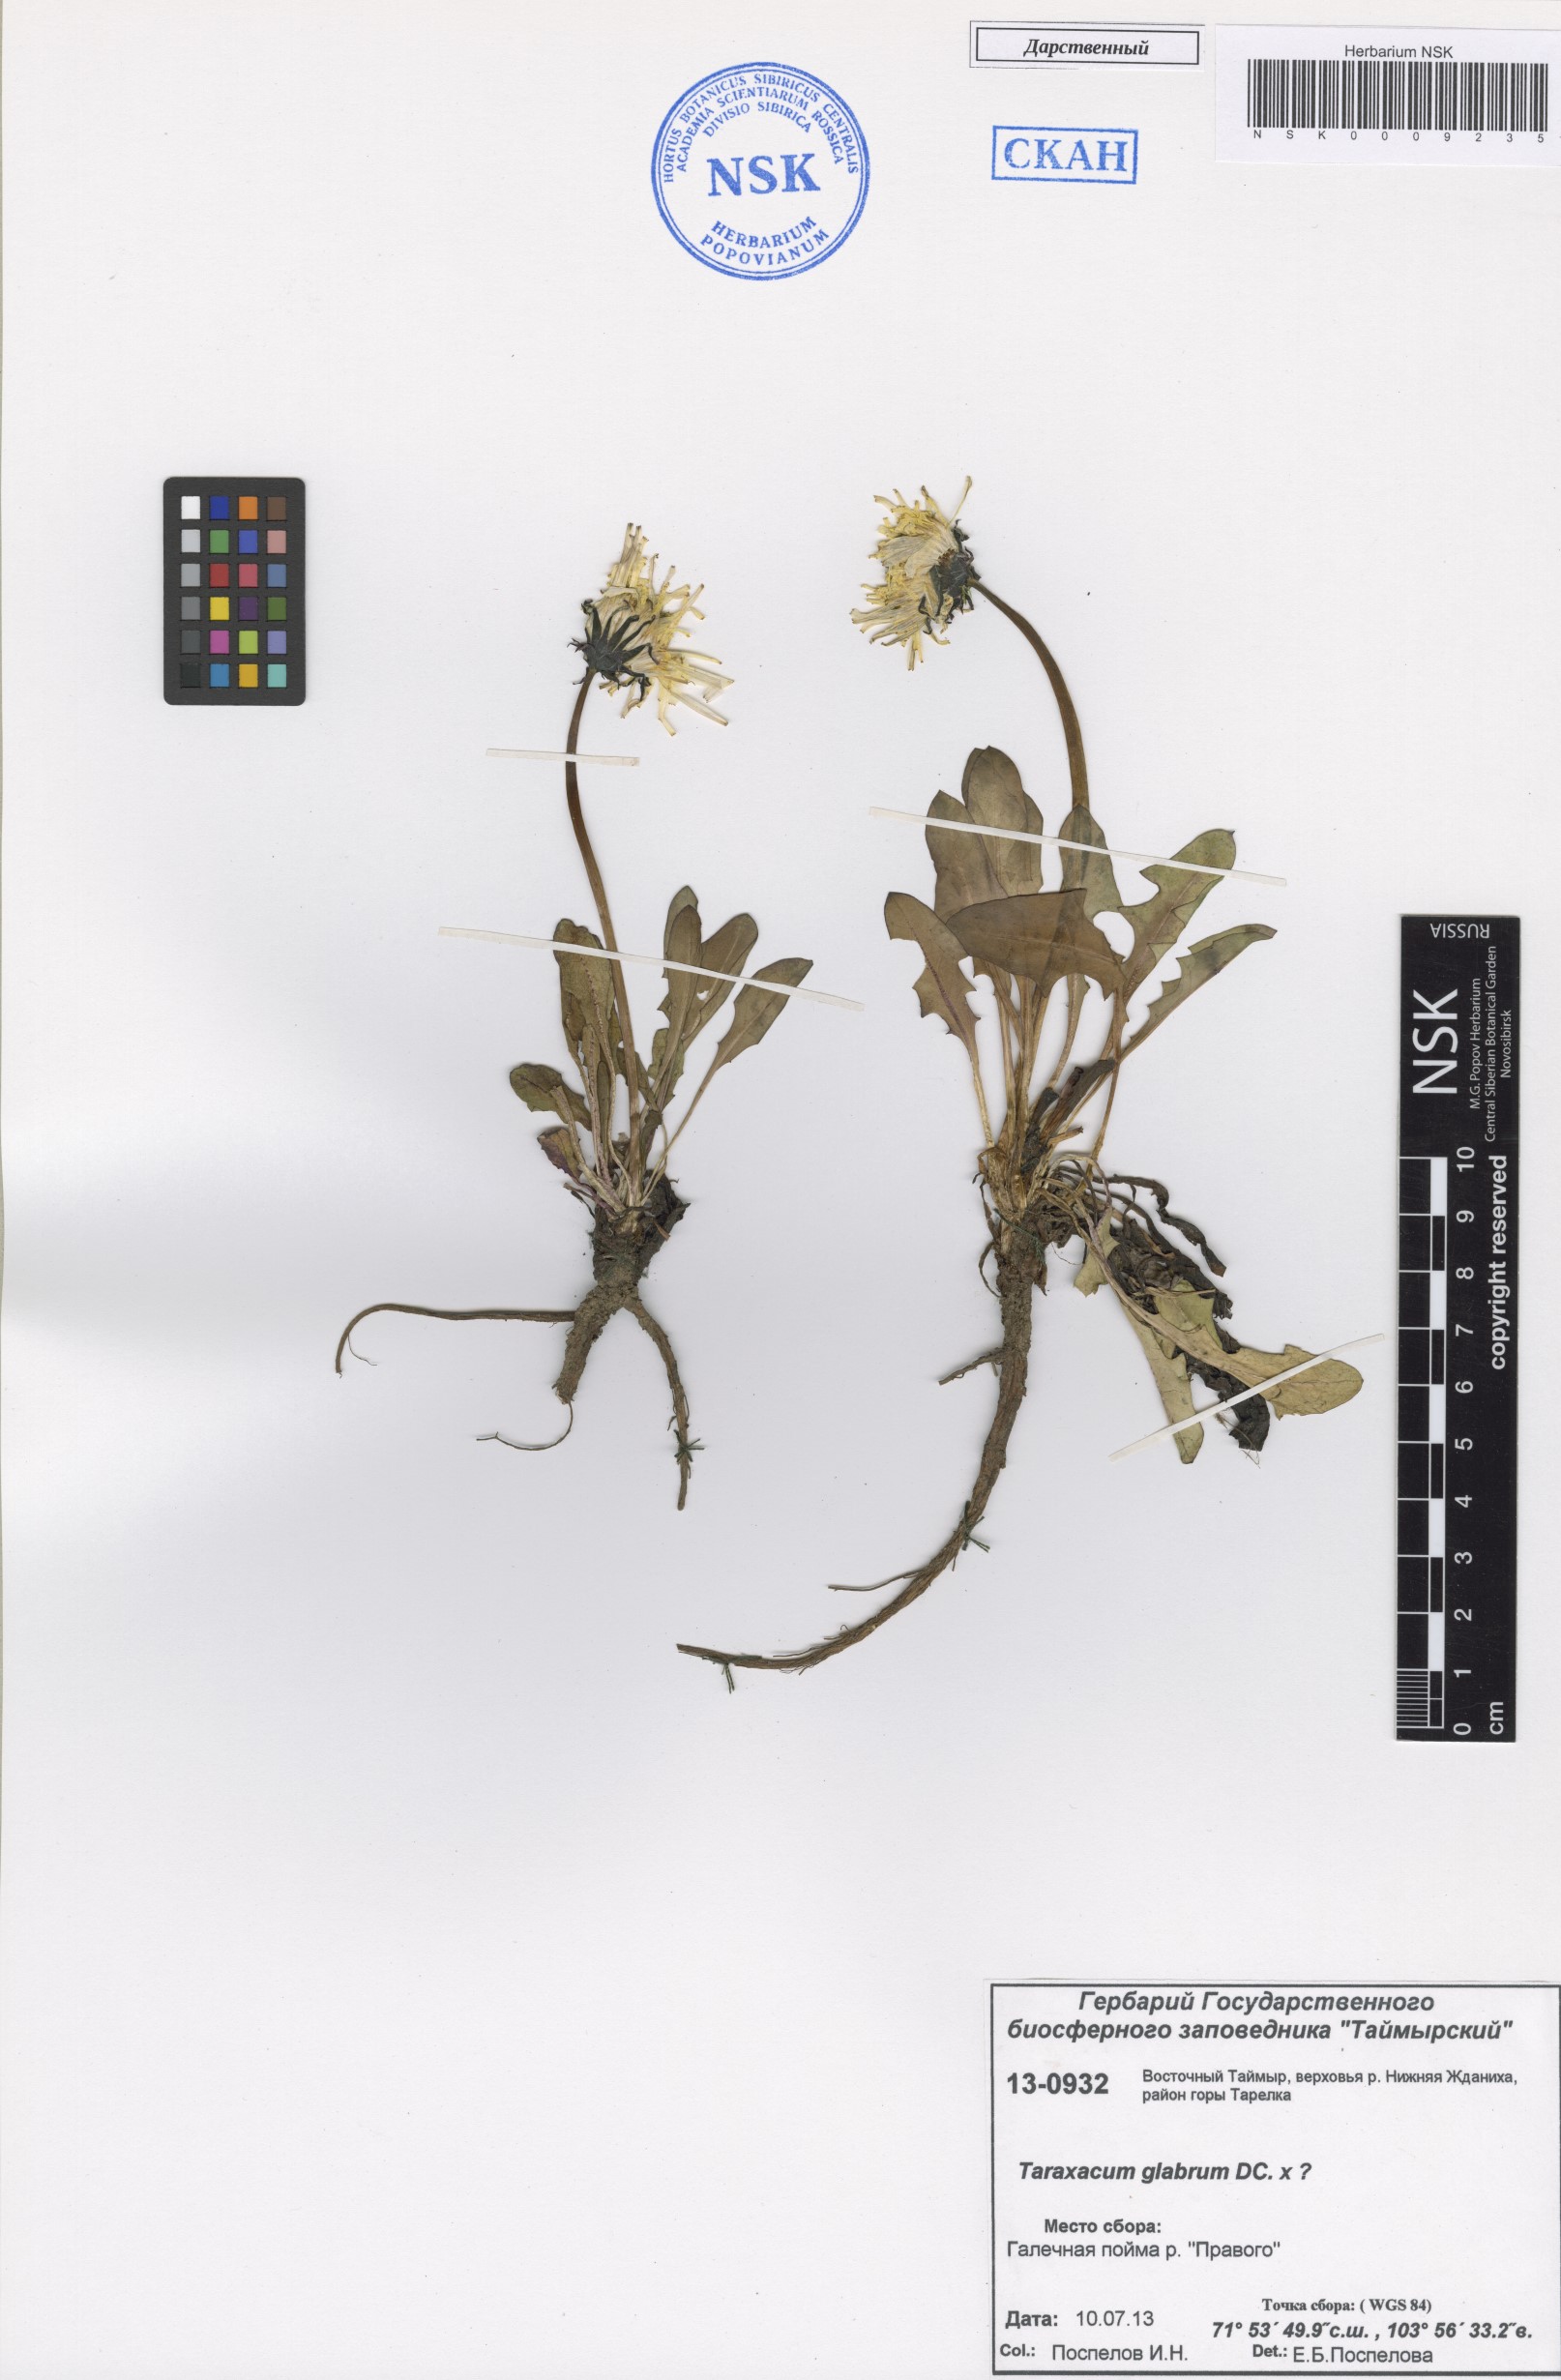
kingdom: Plantae
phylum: Tracheophyta
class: Magnoliopsida
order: Asterales
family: Asteraceae
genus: Taraxacum
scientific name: Taraxacum glabrum
